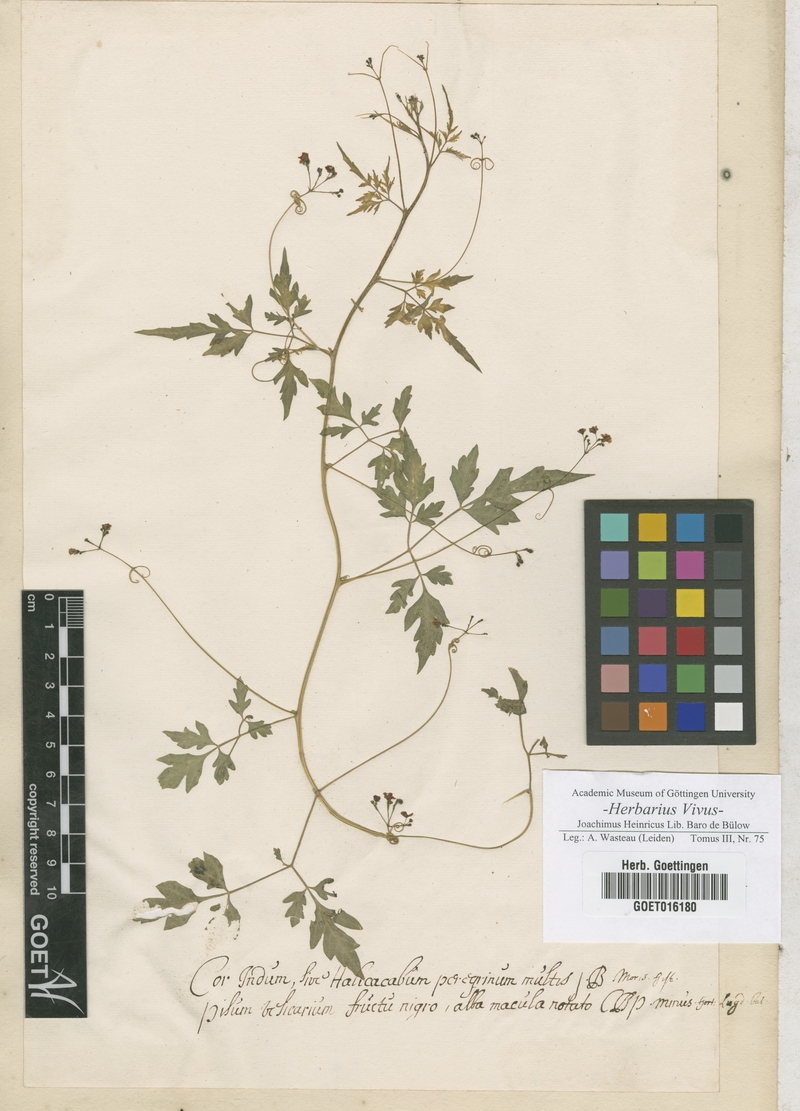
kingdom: Plantae
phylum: Tracheophyta
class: Magnoliopsida
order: Sapindales
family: Sapindaceae
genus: Cardiospermum
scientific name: Cardiospermum halicacabum
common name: Balloon vine
